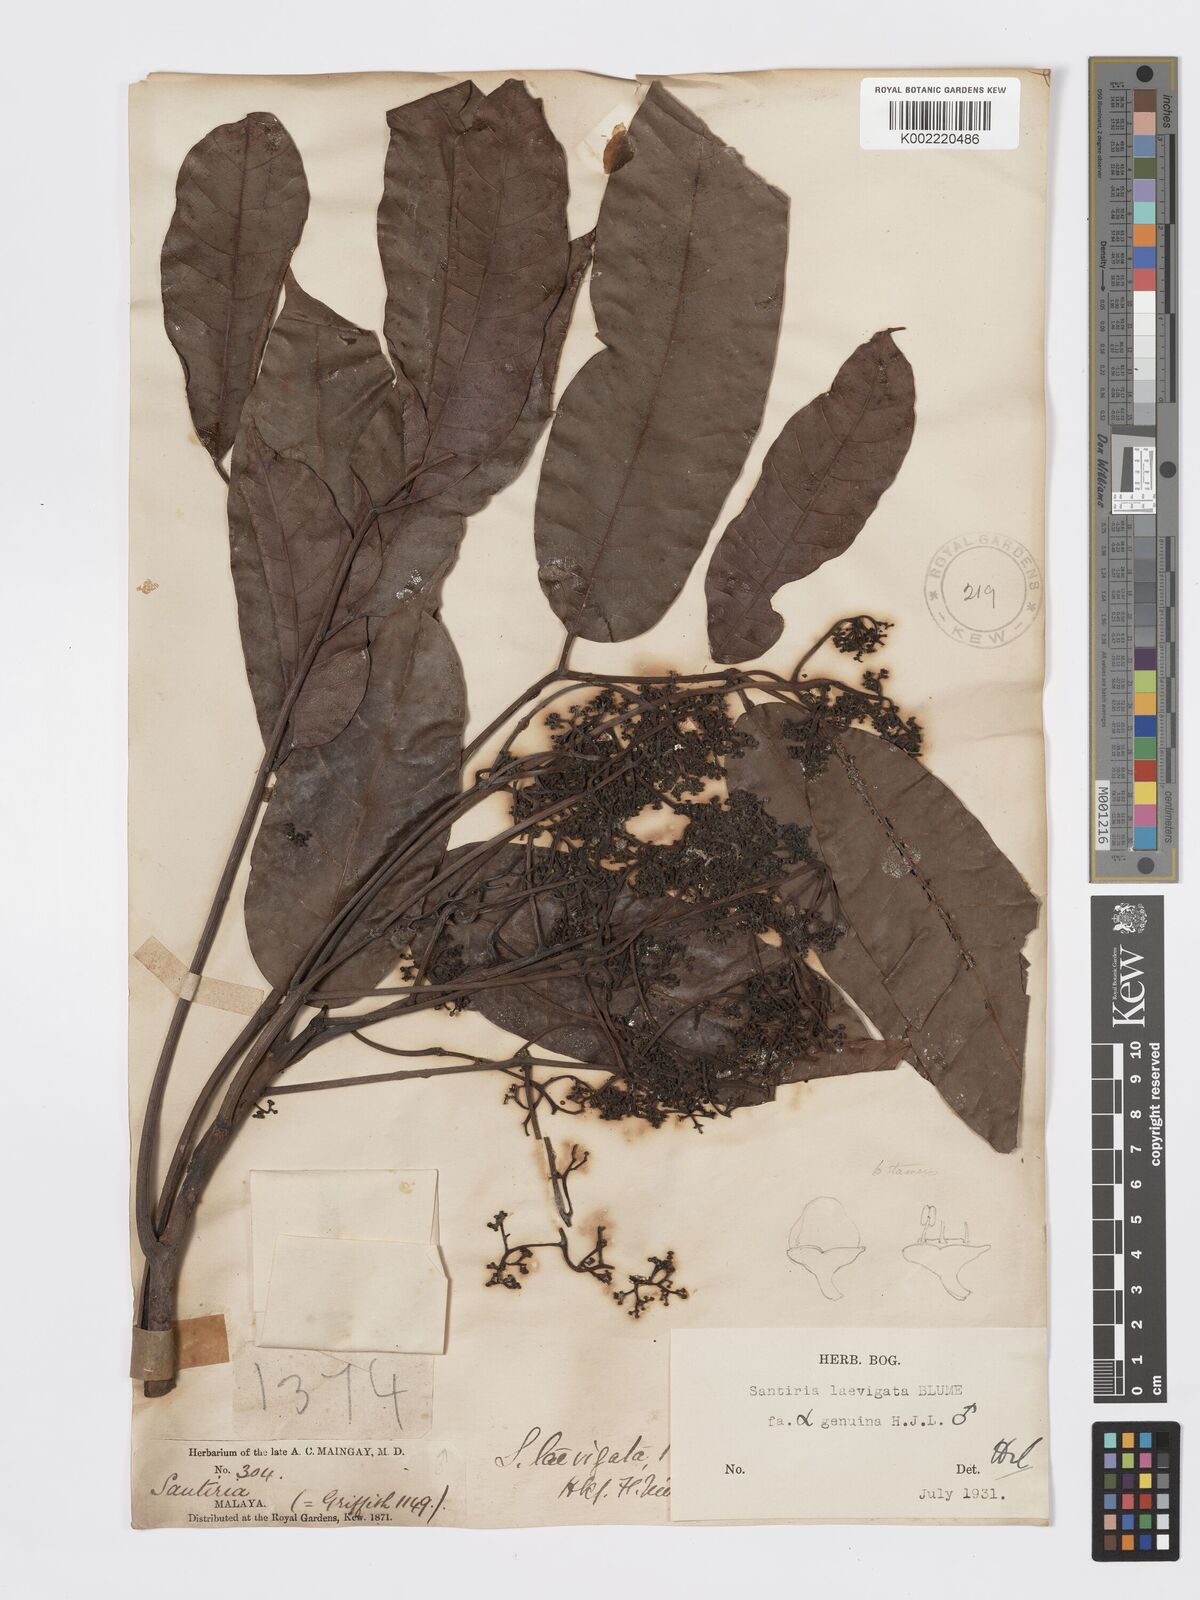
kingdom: Plantae
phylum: Tracheophyta
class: Magnoliopsida
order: Sapindales
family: Burseraceae
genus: Santiria
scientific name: Santiria laevigata
